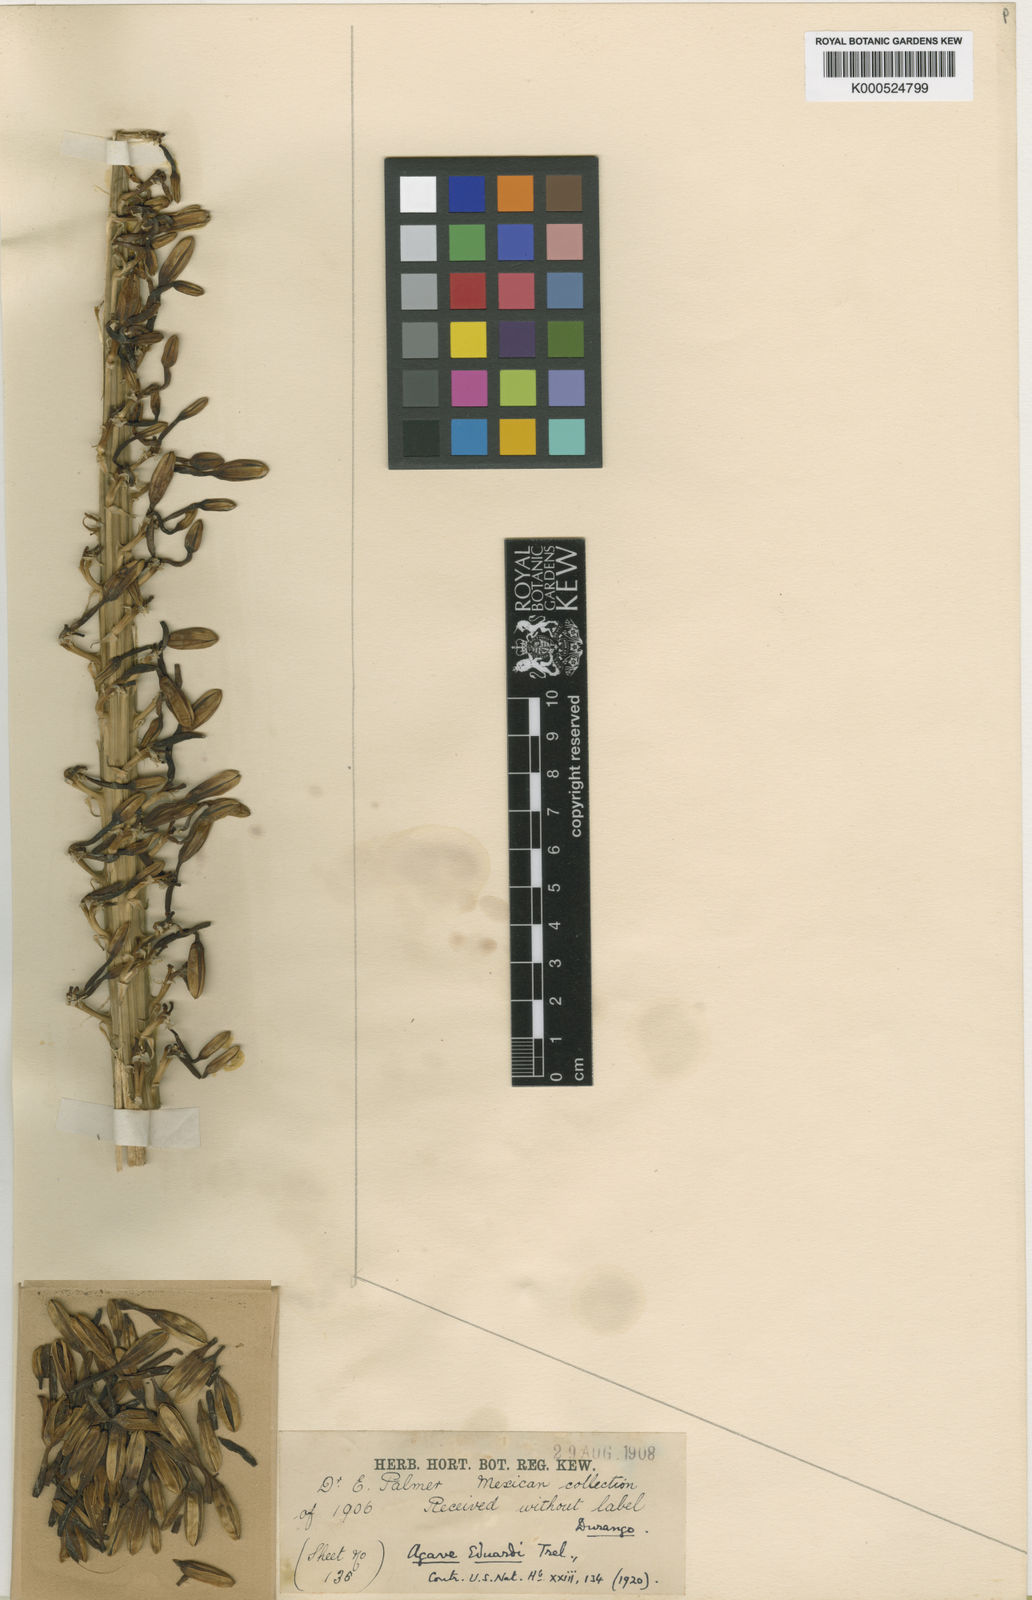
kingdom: Plantae
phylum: Tracheophyta
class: Liliopsida
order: Asparagales
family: Asparagaceae
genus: Agave
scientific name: Agave vilmoriniana
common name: Octopus plant
